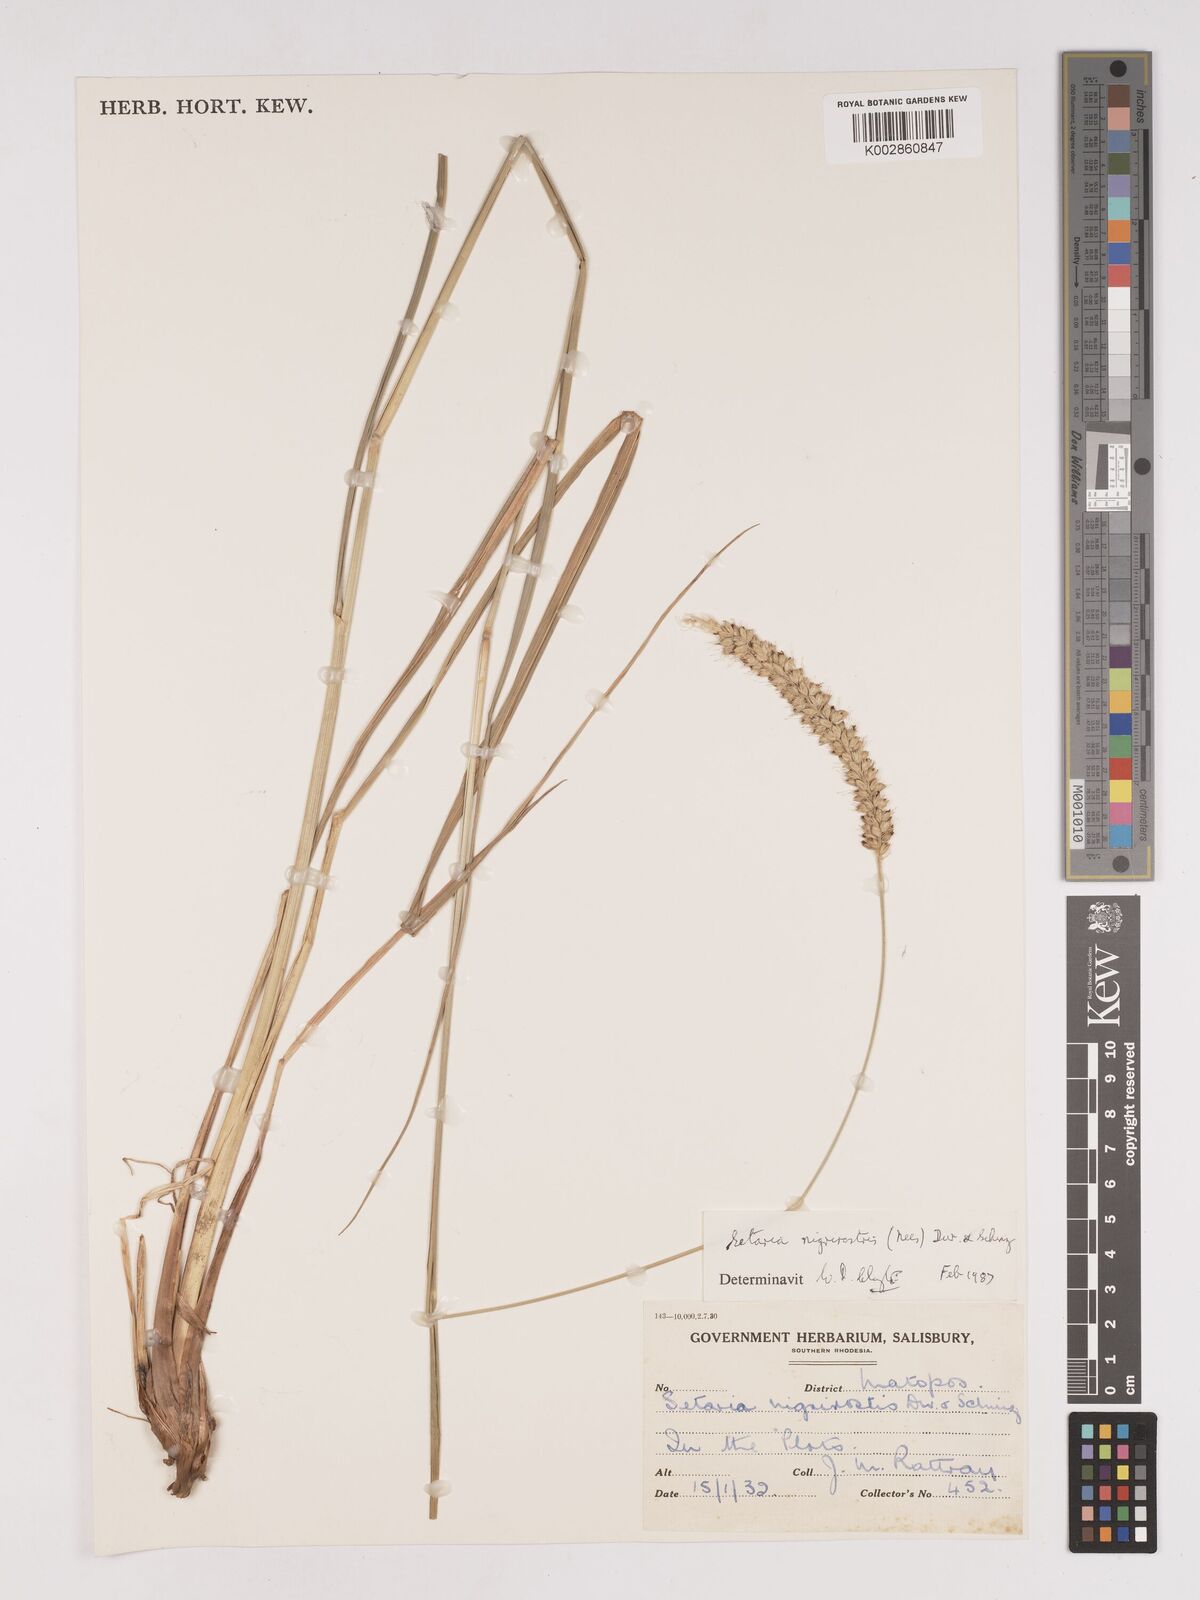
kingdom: Plantae
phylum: Tracheophyta
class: Liliopsida
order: Poales
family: Poaceae
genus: Setaria
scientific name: Setaria nigrirostris
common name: Black bristlegrass
